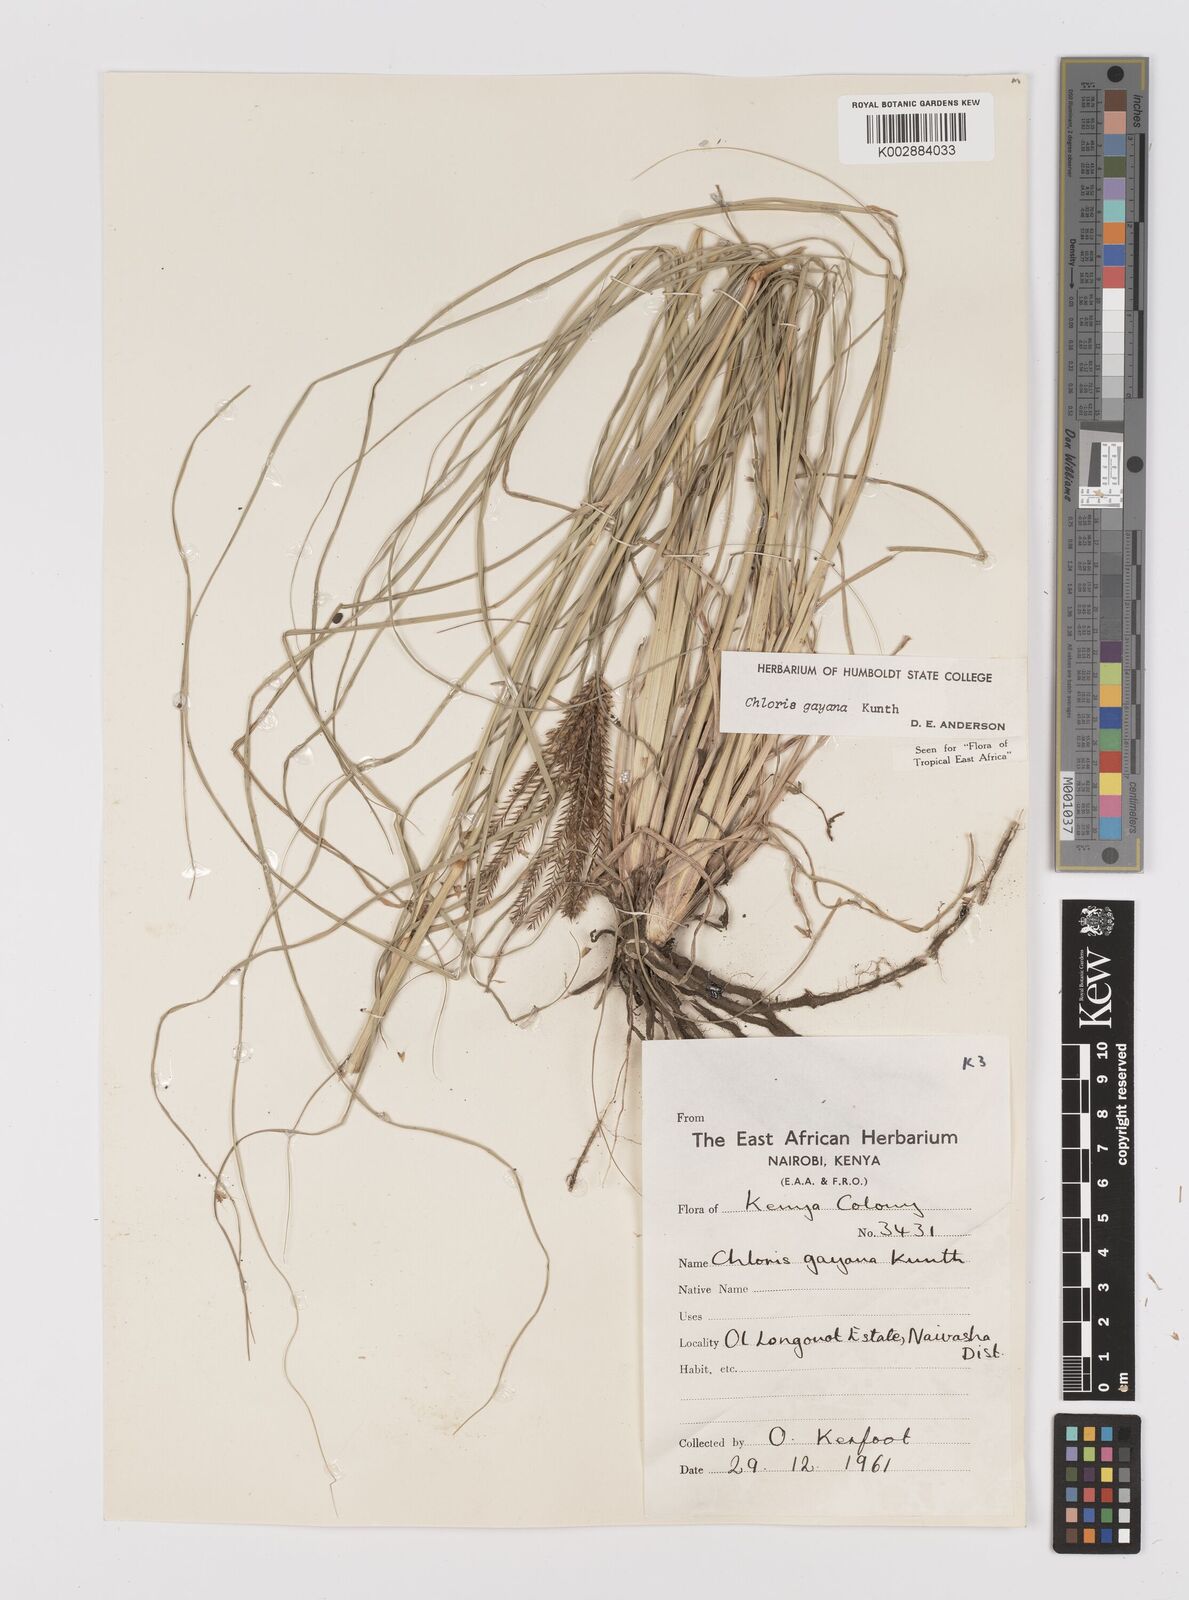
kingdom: Plantae
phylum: Tracheophyta
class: Liliopsida
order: Poales
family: Poaceae
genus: Chloris
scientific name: Chloris gayana
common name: Rhodes grass
